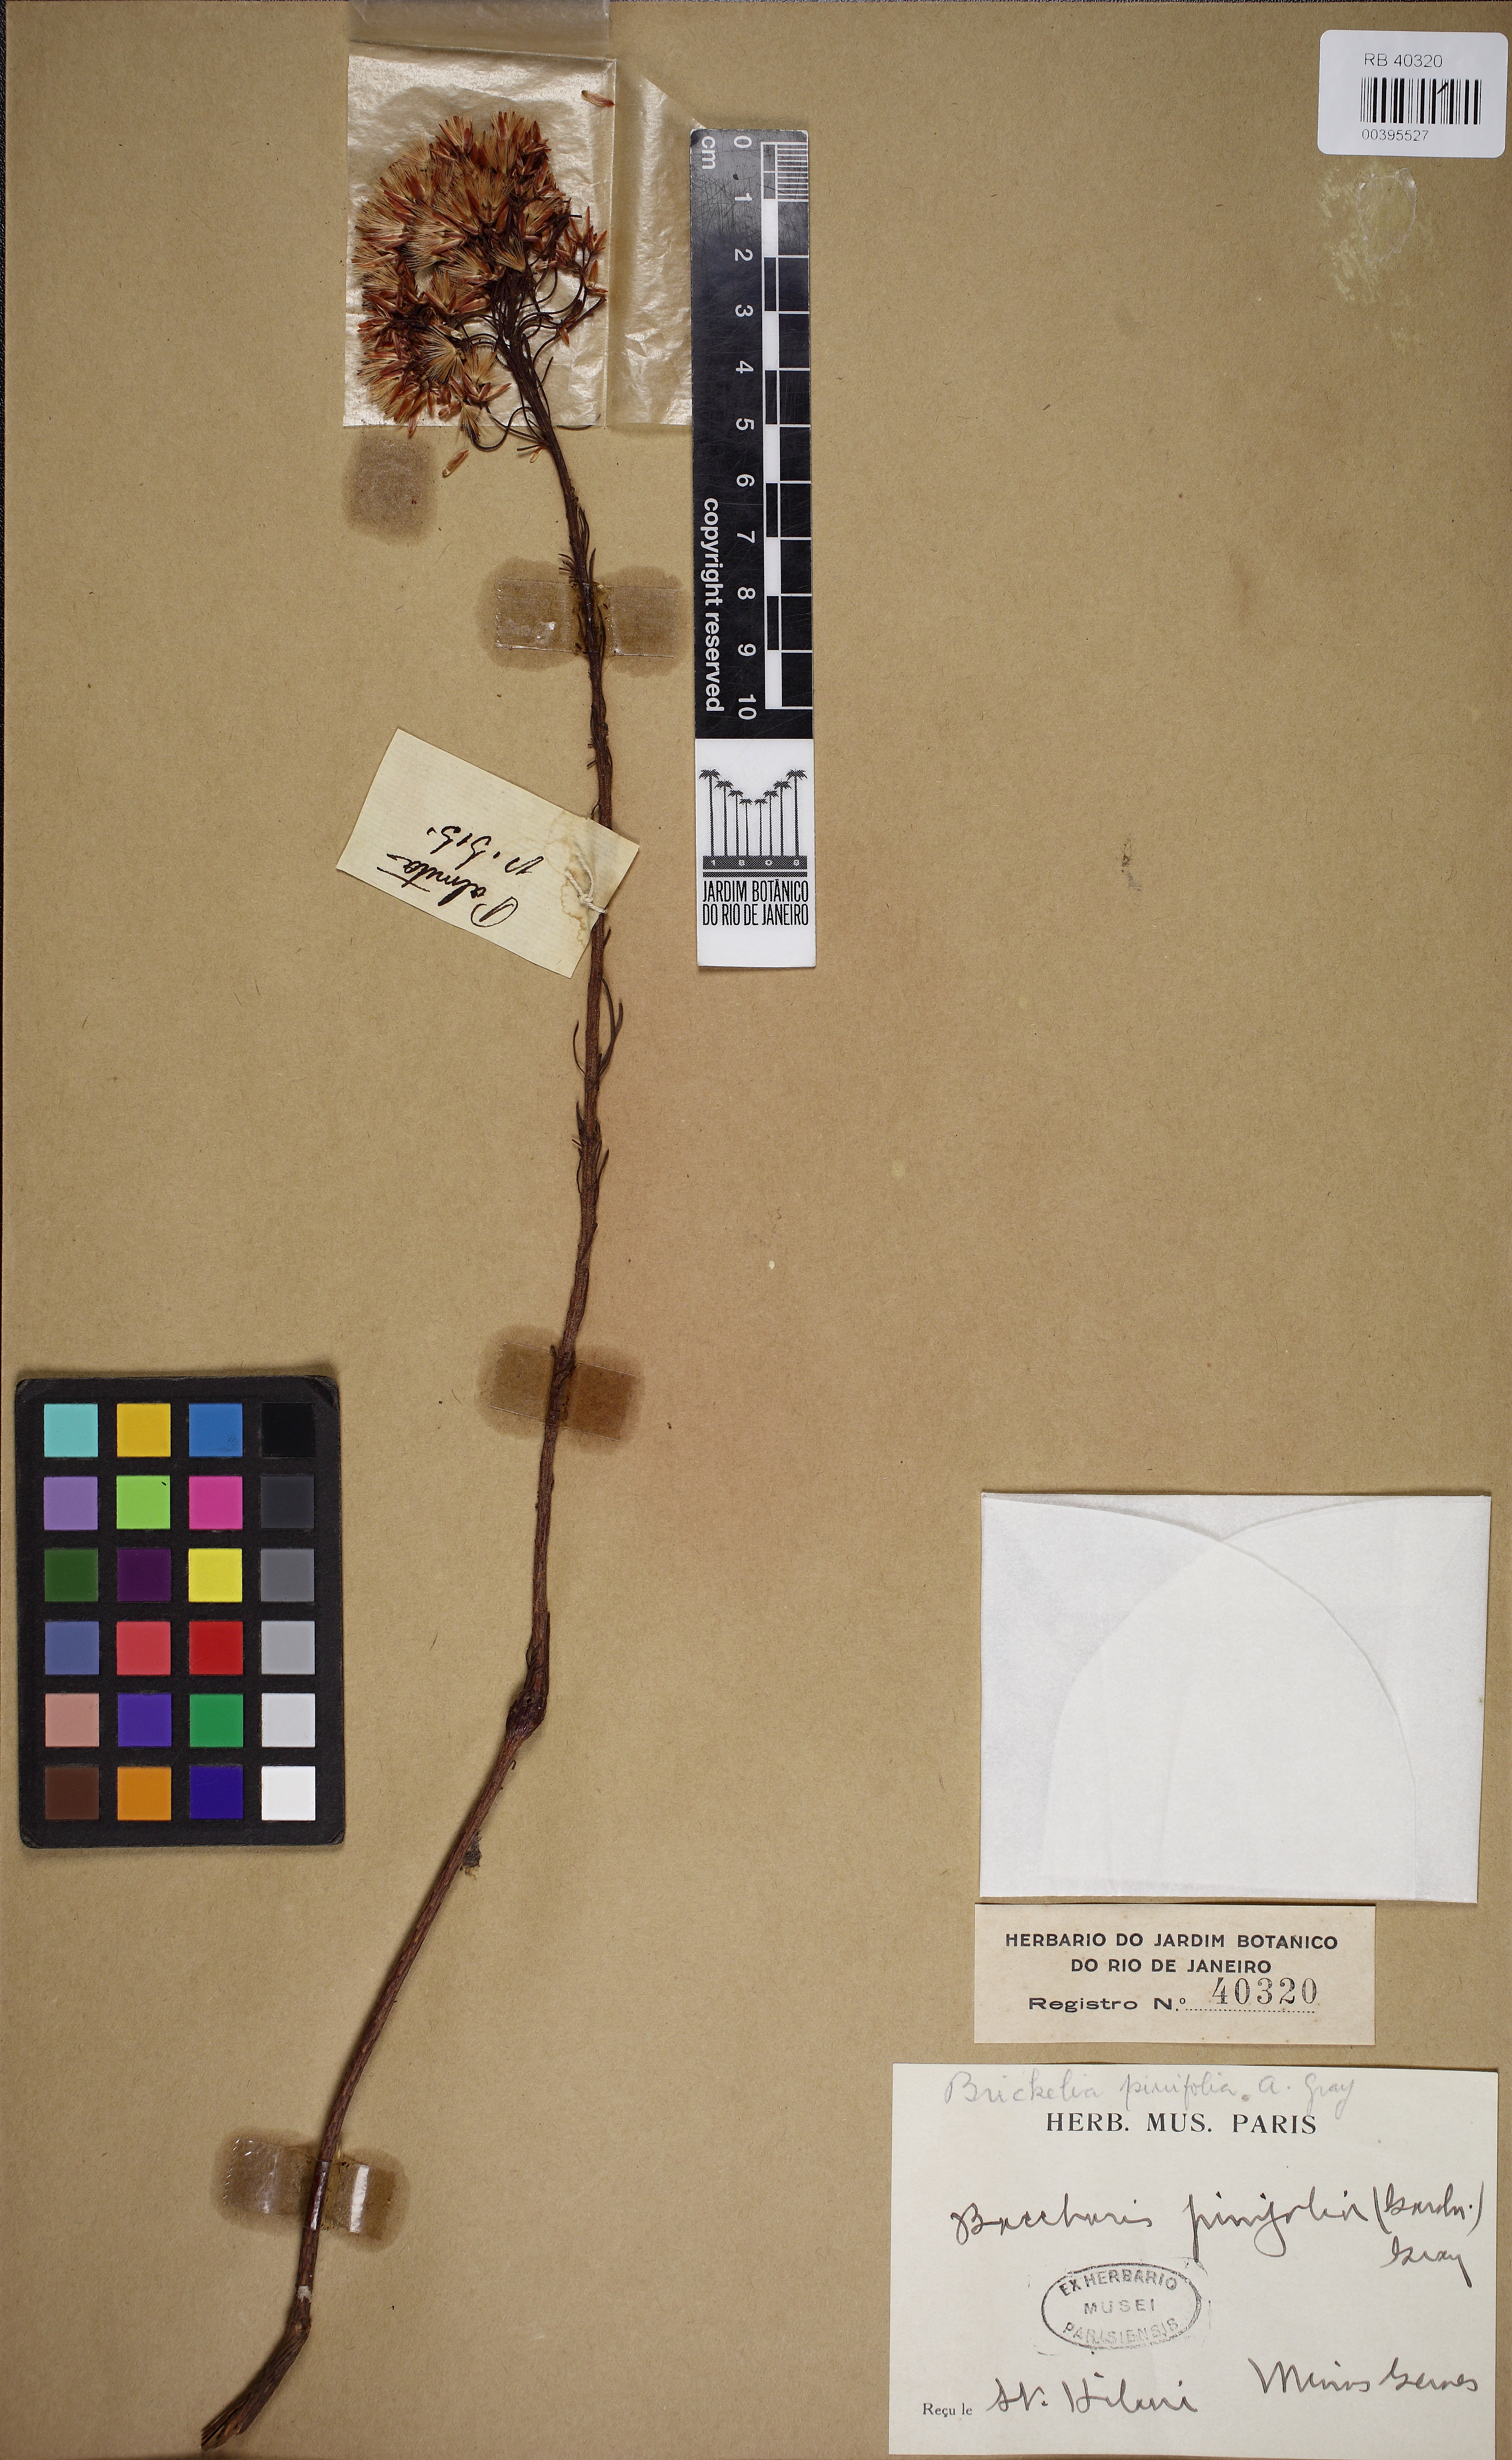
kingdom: Plantae
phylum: Tracheophyta
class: Magnoliopsida
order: Asterales
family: Asteraceae
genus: Pseudobrickellia
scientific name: Pseudobrickellia brasiliensis
